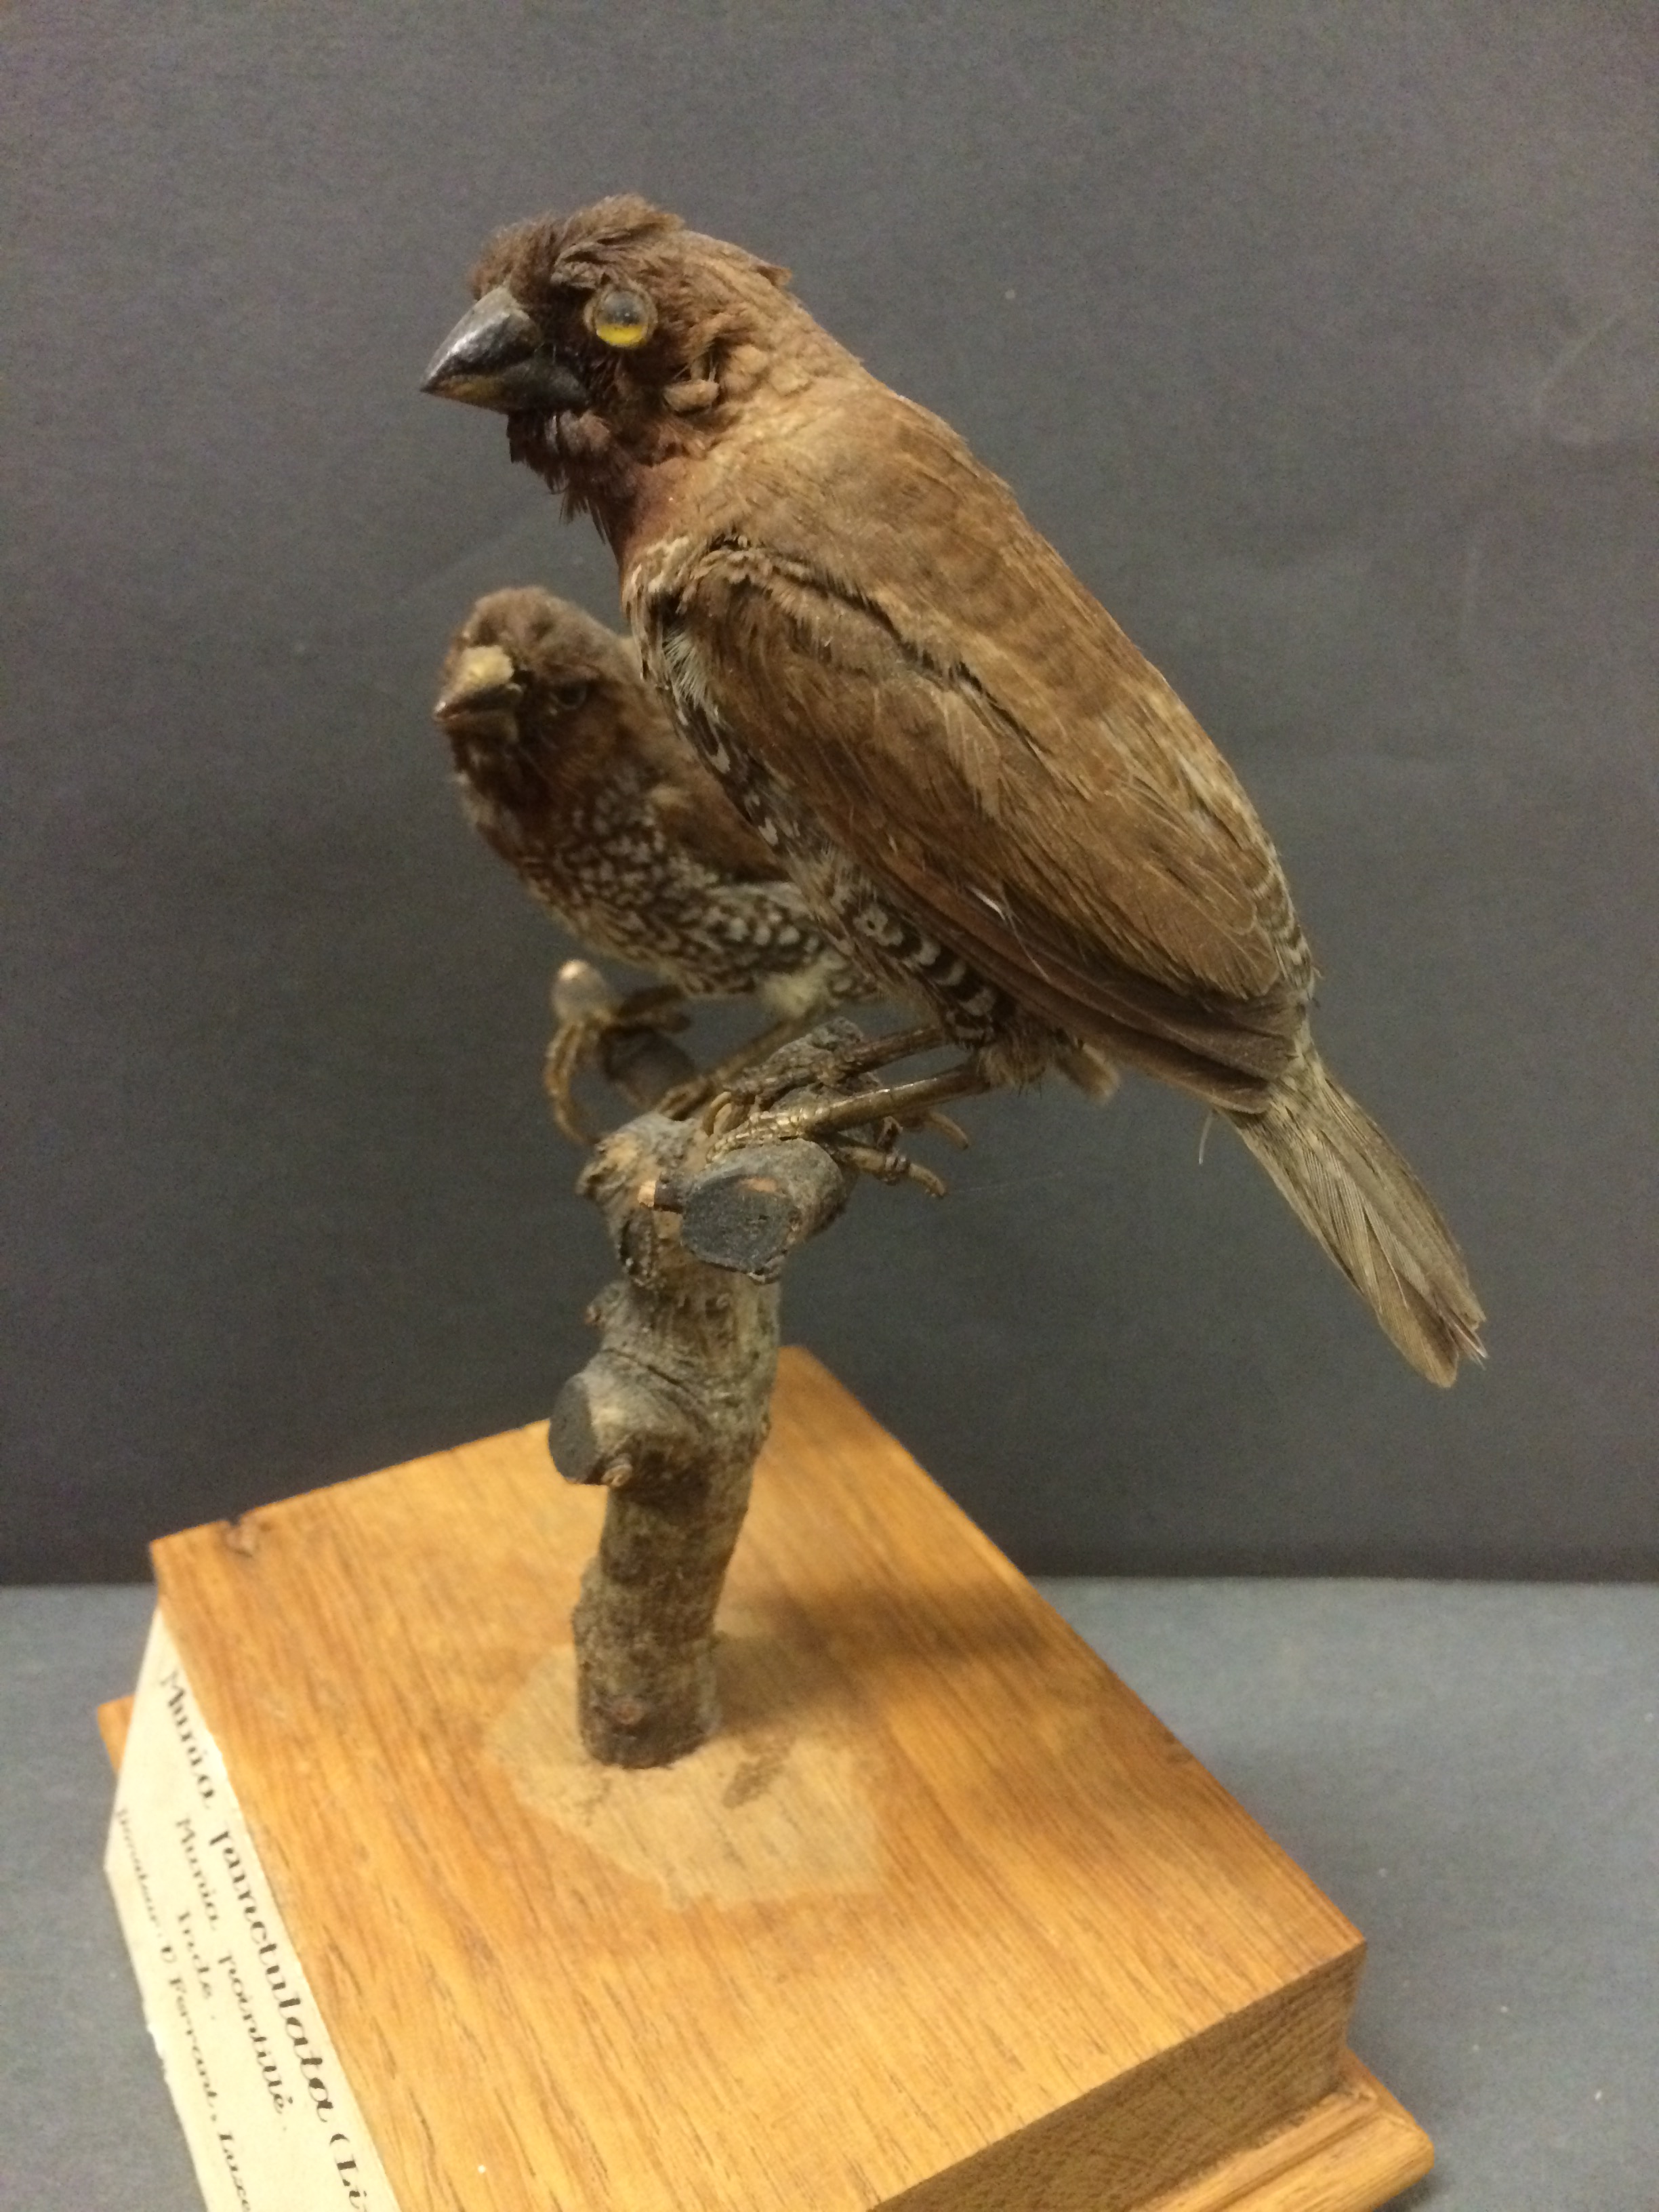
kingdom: Animalia
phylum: Chordata
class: Aves
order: Passeriformes
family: Estrildidae
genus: Lonchura
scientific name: Lonchura punctulata
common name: Scaly-breasted munia
